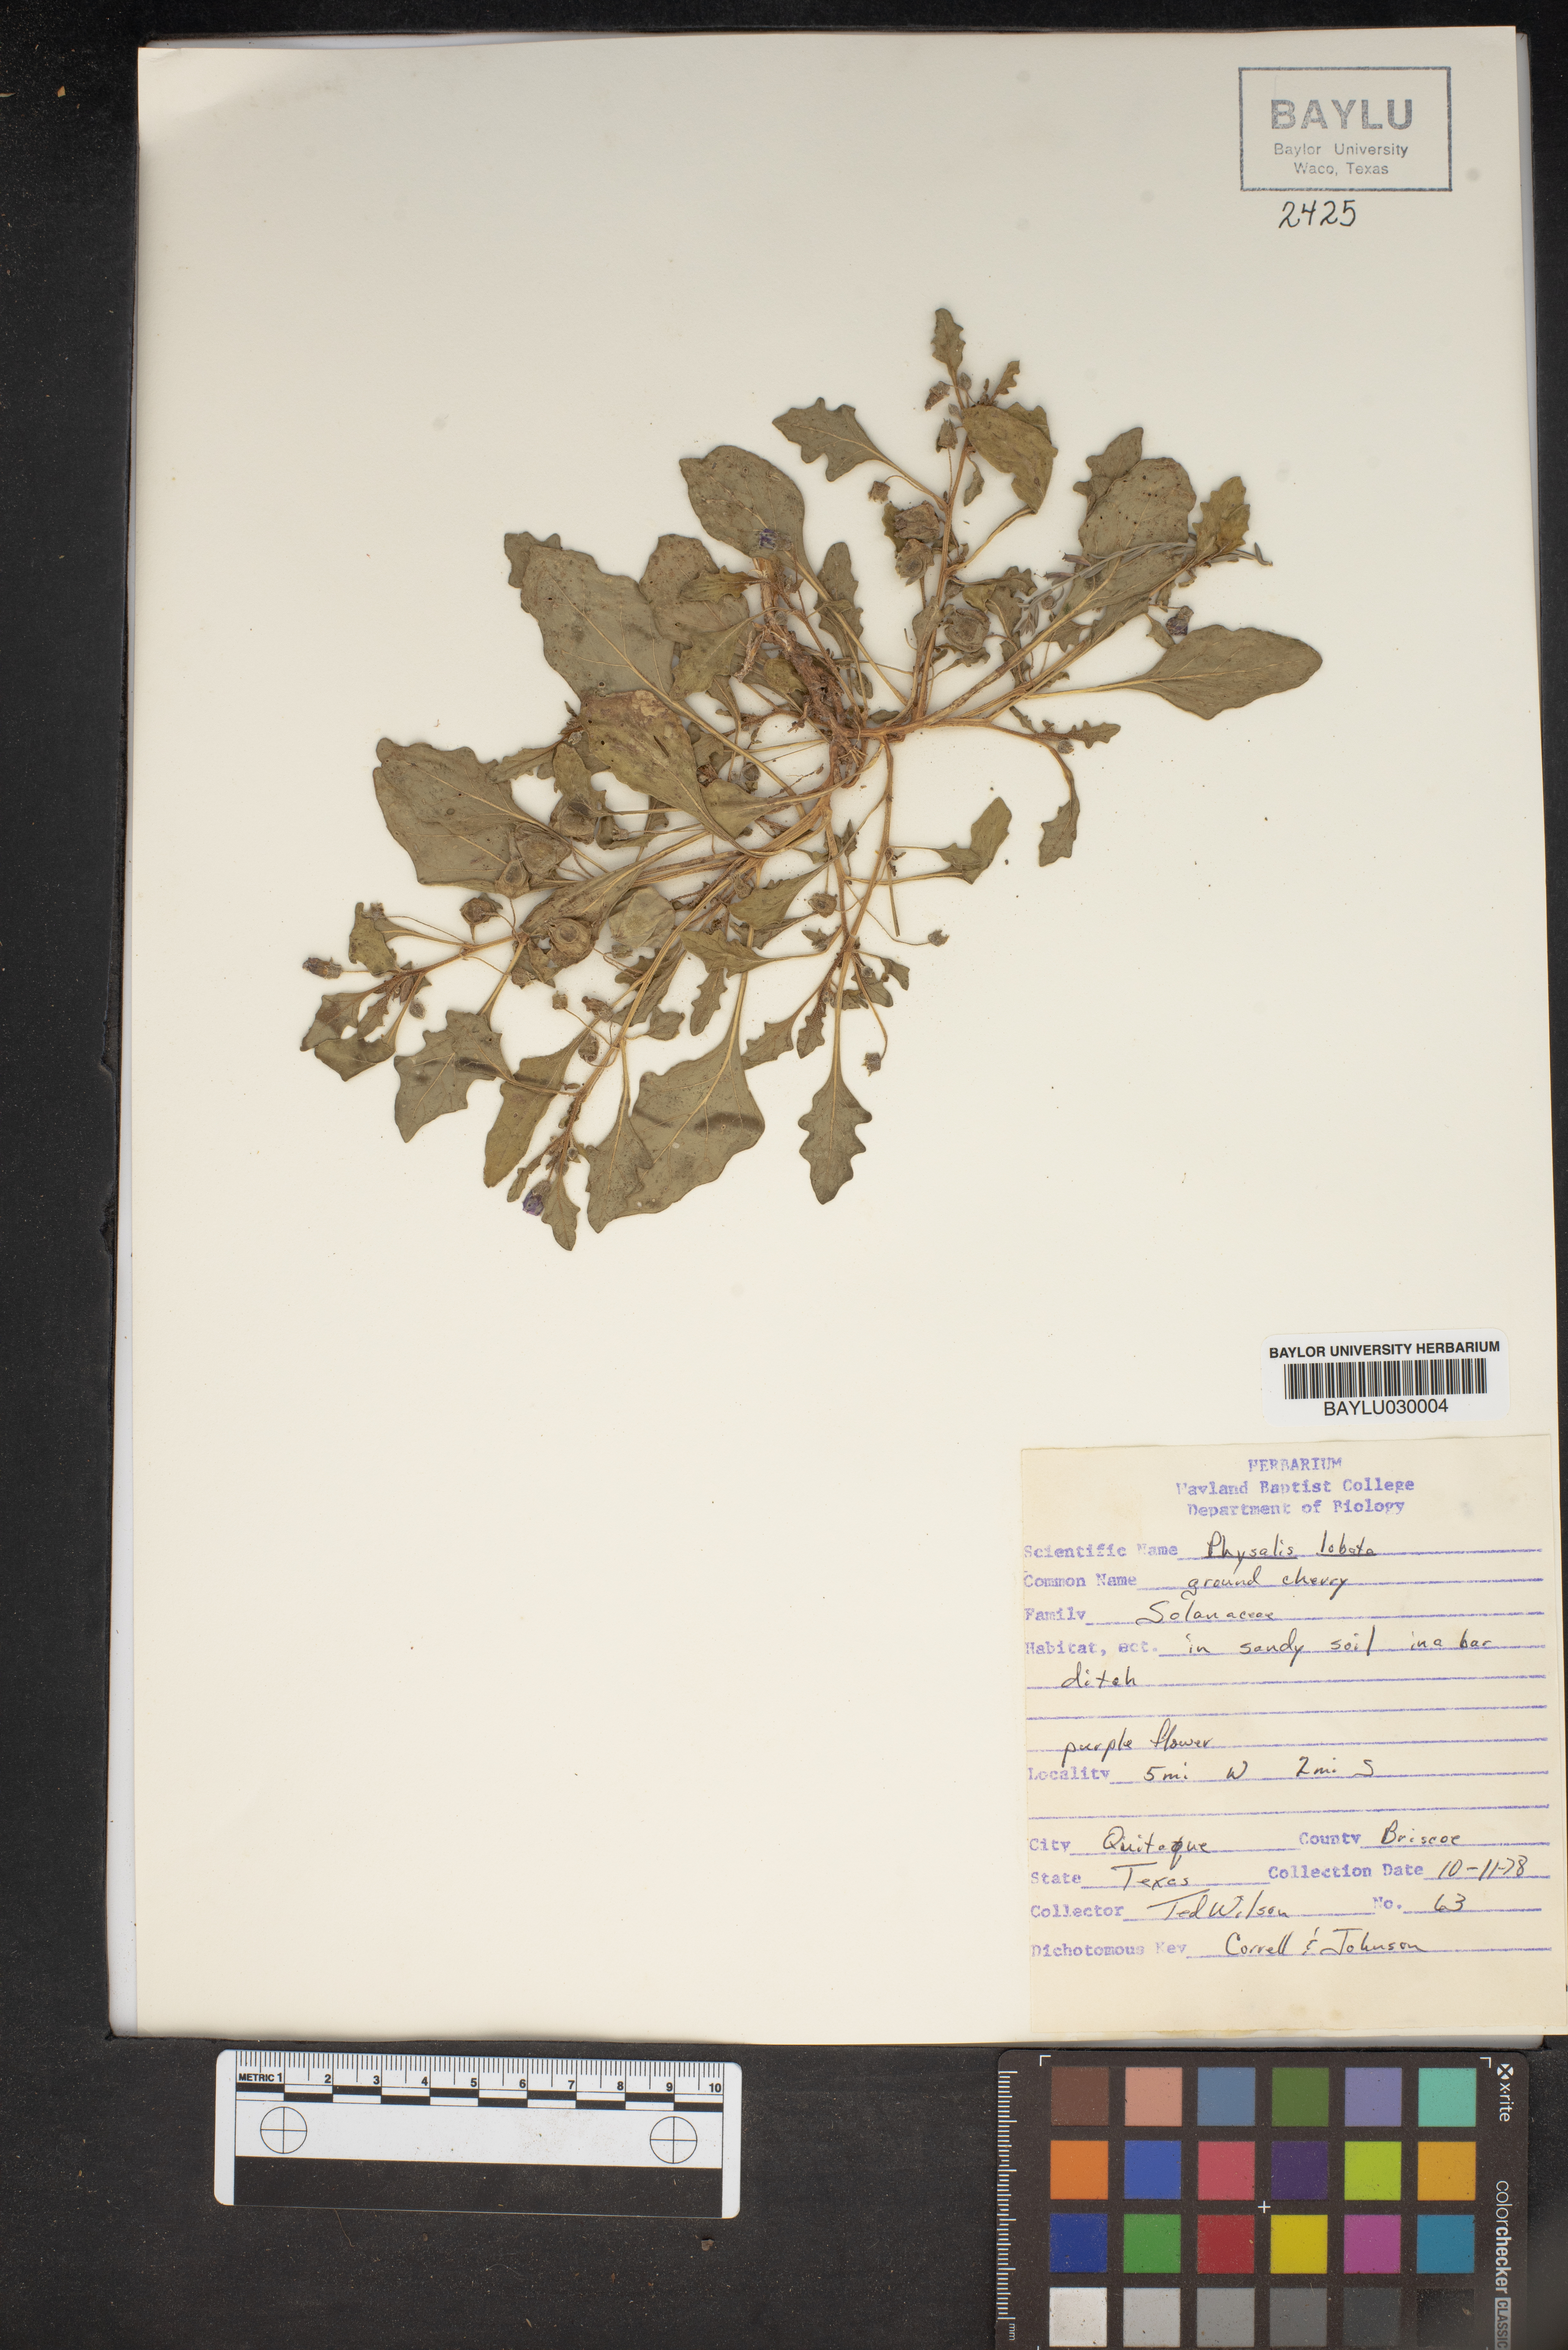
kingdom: Plantae
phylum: Tracheophyta
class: Magnoliopsida
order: Solanales
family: Solanaceae
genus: Quincula
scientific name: Quincula lobata
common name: Purple-ground-cherry
